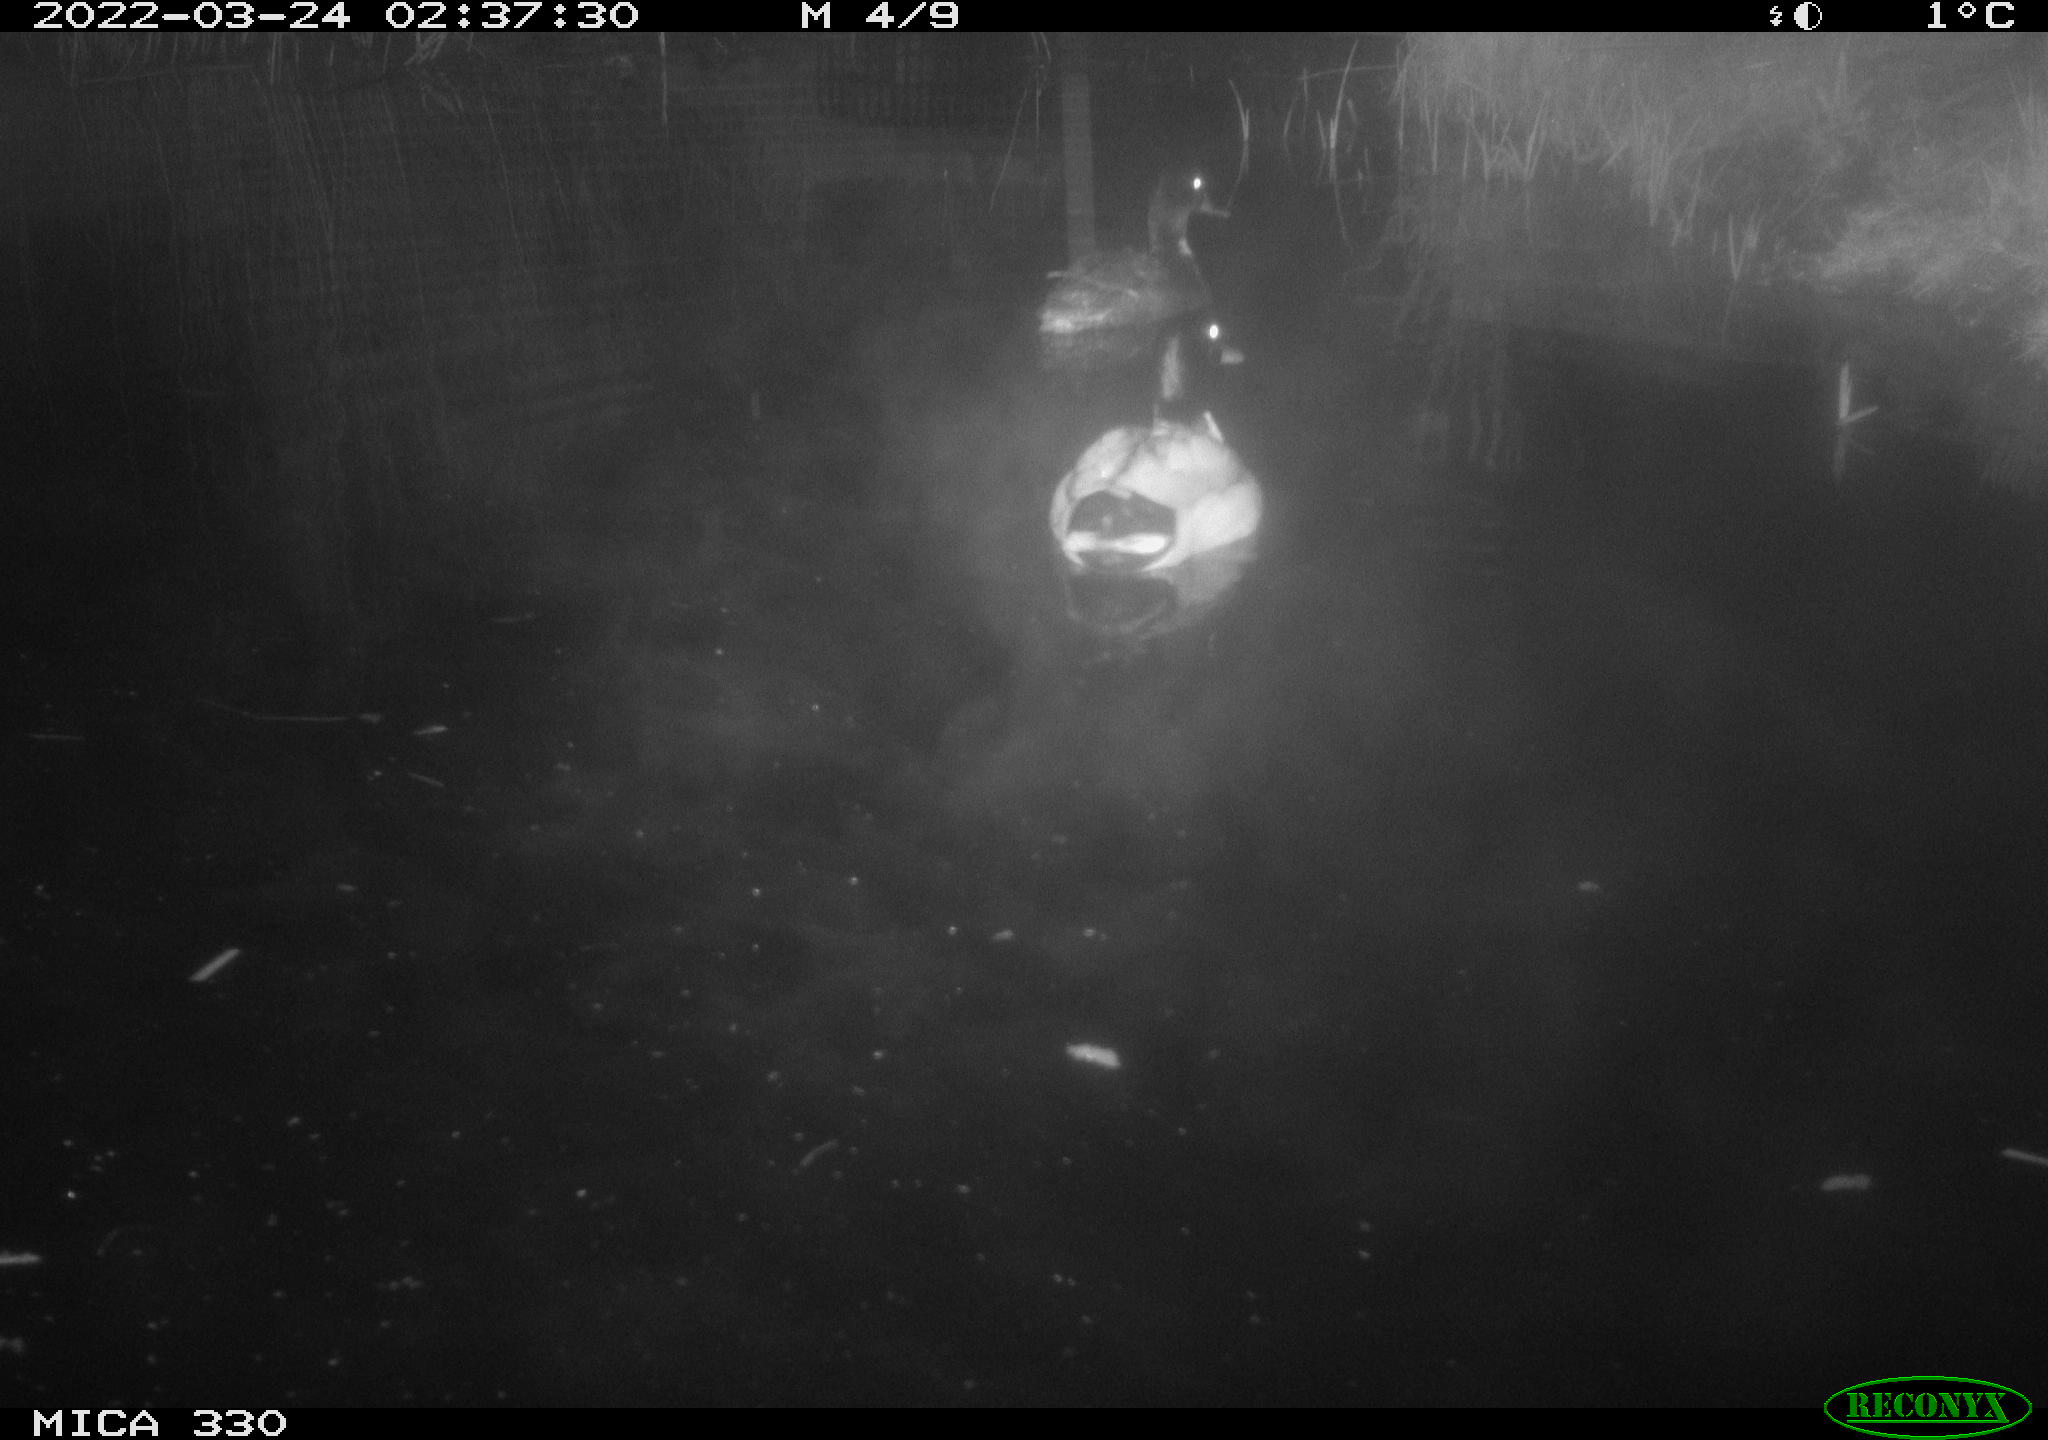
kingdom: Animalia
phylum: Chordata
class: Aves
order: Anseriformes
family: Anatidae
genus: Anas
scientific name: Anas platyrhynchos
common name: Mallard
